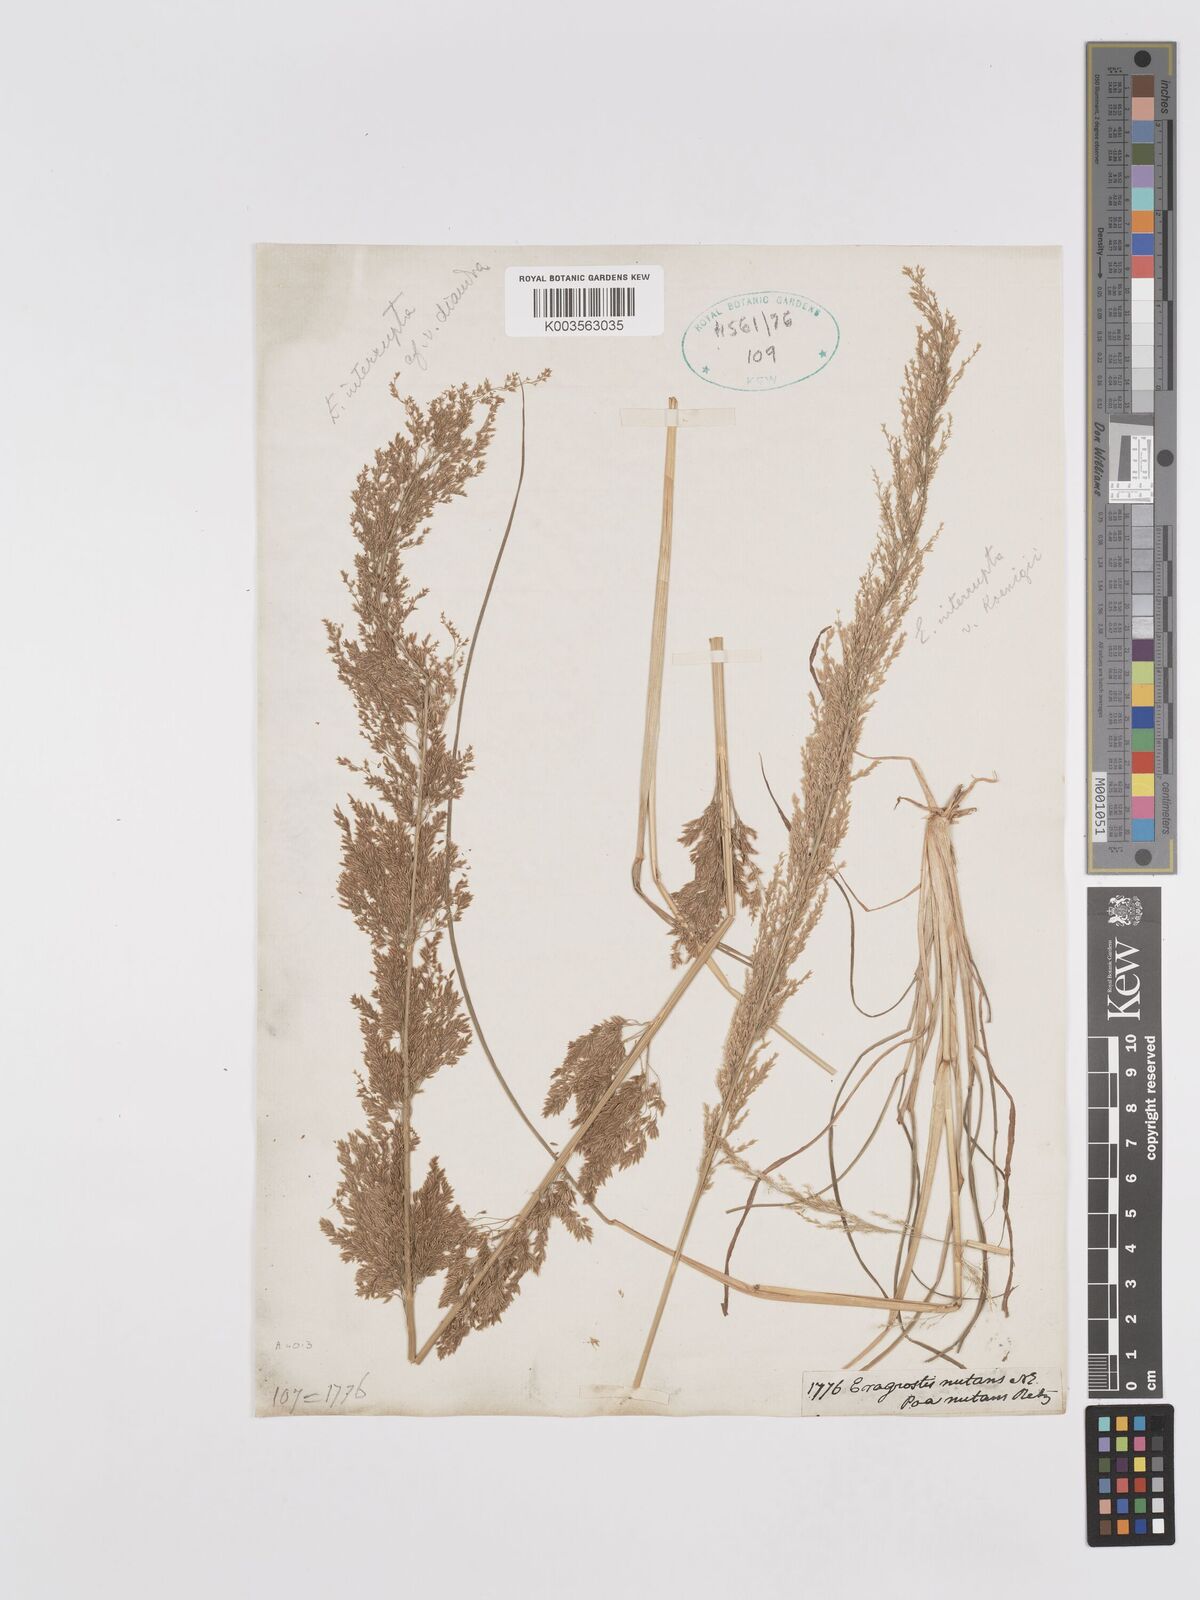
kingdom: Plantae
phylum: Tracheophyta
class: Liliopsida
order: Poales
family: Poaceae
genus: Eragrostis
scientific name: Eragrostis japonica
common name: Pond lovegrass
